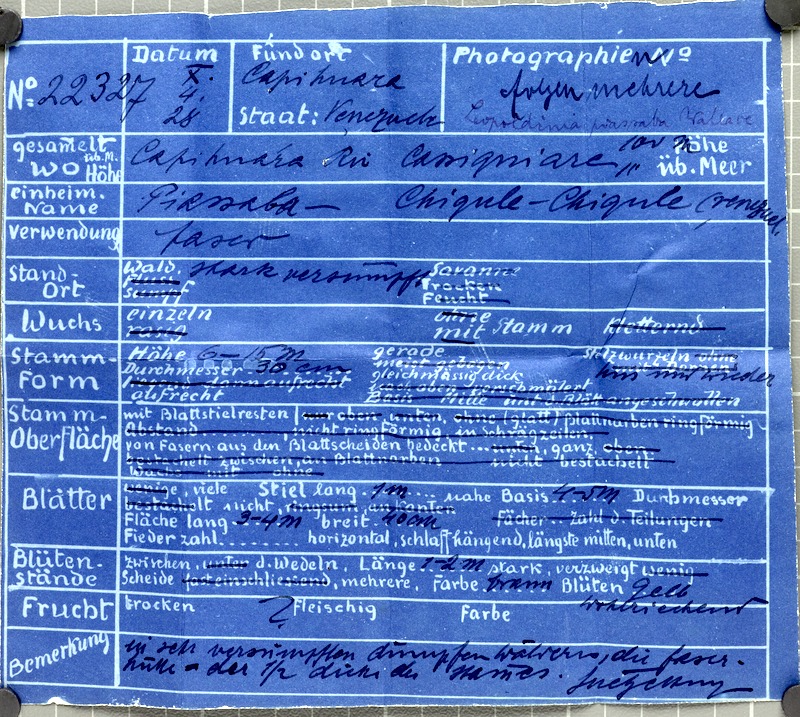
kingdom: Plantae
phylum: Tracheophyta
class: Liliopsida
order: Arecales
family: Arecaceae
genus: Leopoldinia
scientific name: Leopoldinia piassaba
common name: Piassaba
